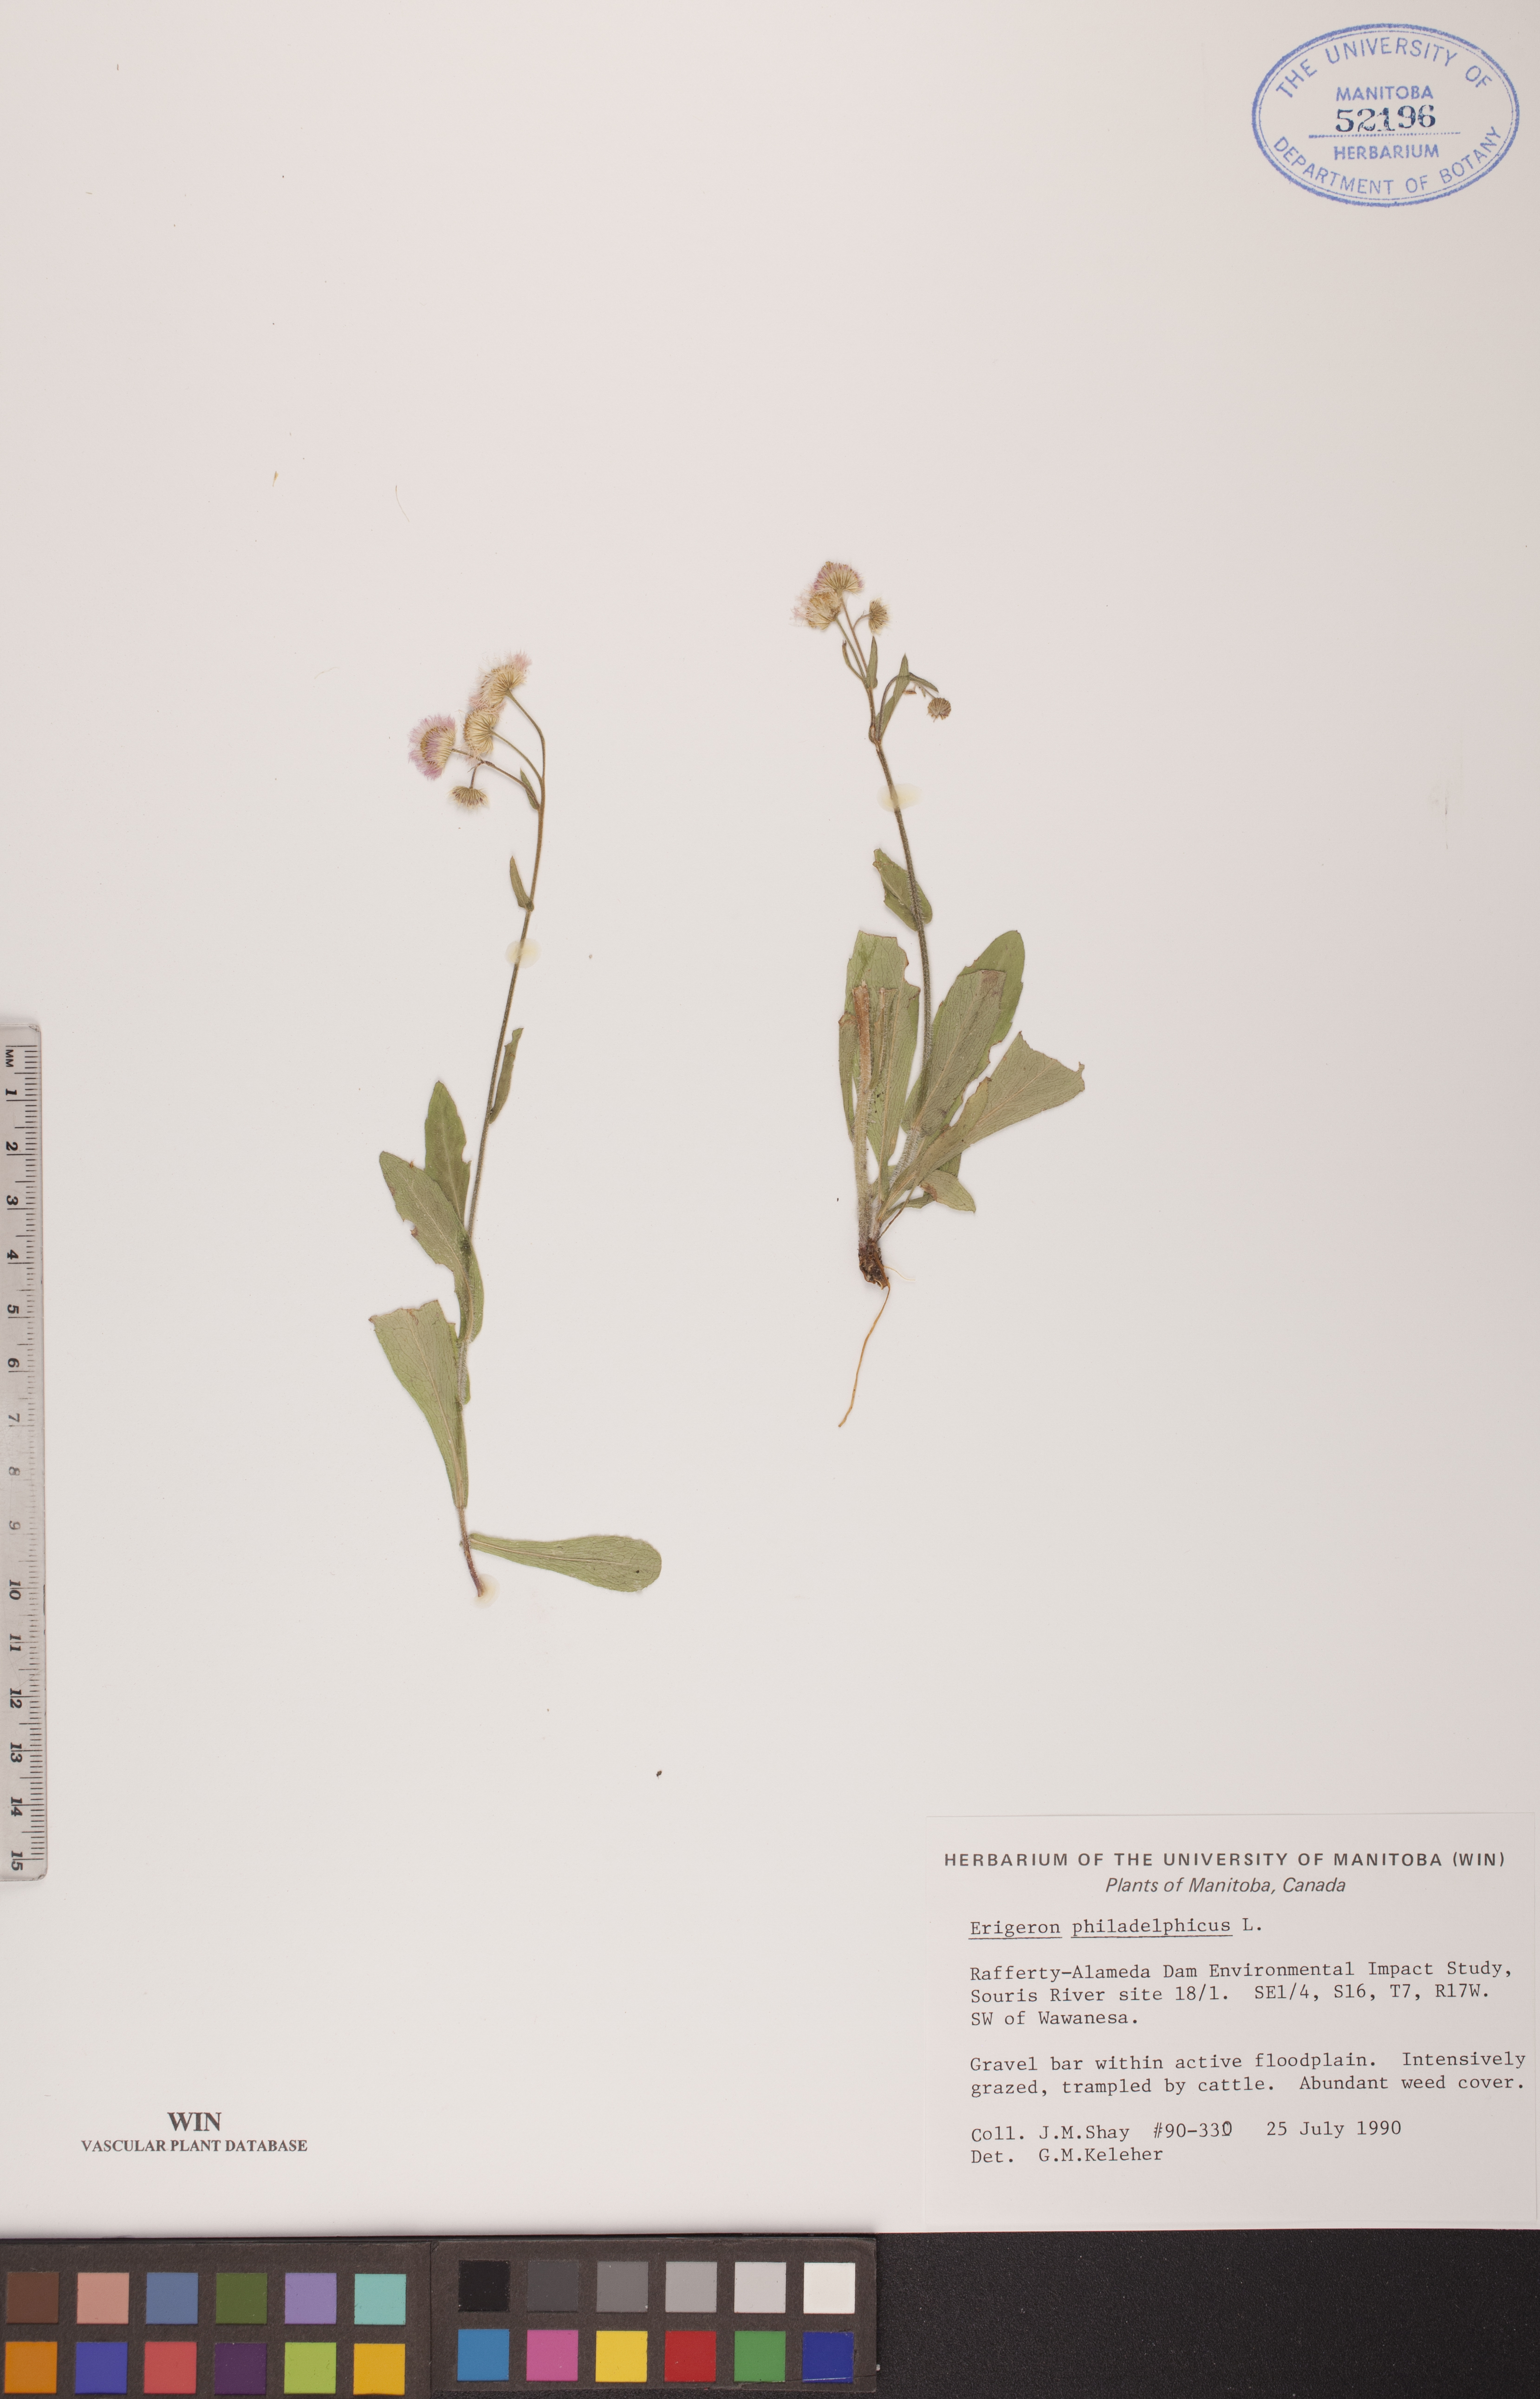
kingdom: Plantae
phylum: Tracheophyta
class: Magnoliopsida
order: Asterales
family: Asteraceae
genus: Erigeron
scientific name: Erigeron philadelphicus
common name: Robin's-plantain
